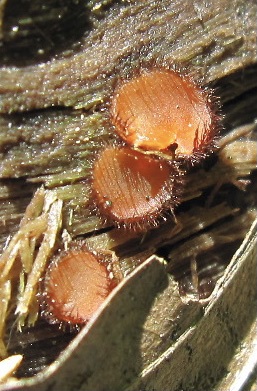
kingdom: Fungi
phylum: Ascomycota
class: Pezizomycetes
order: Pezizales
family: Pyronemataceae
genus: Scutellinia
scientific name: Scutellinia
